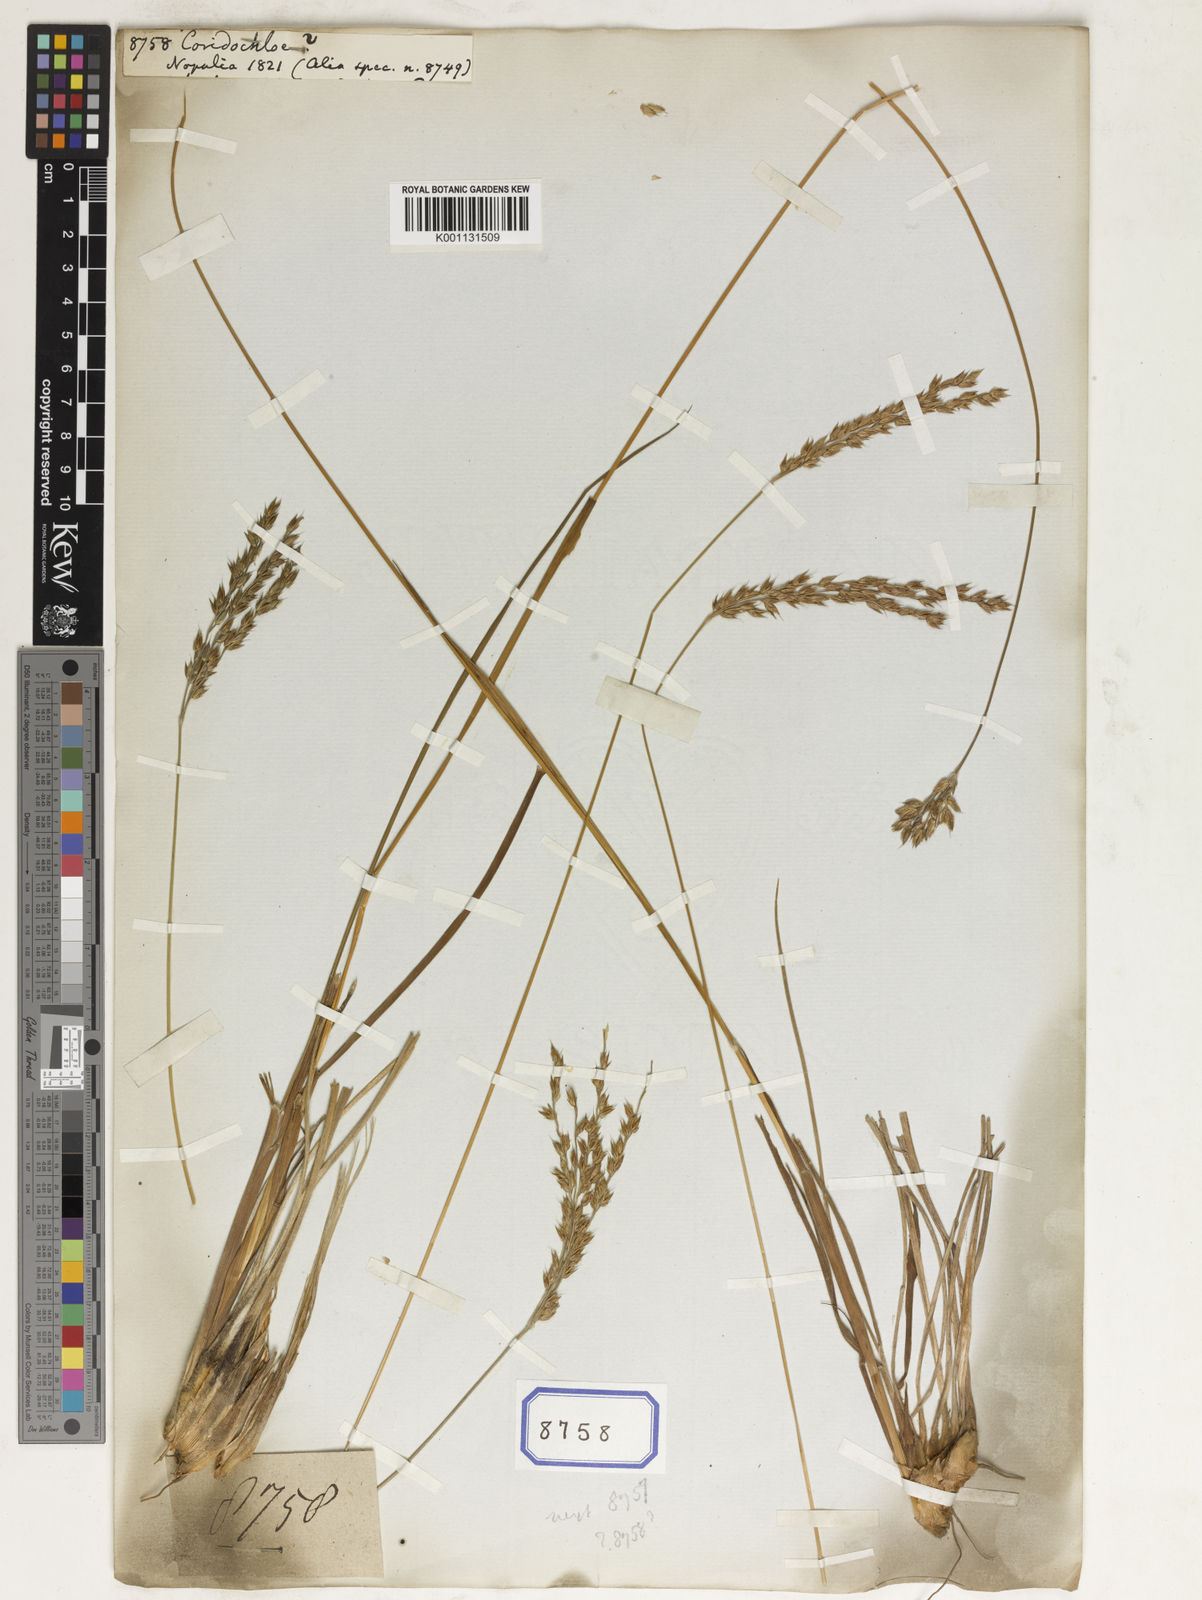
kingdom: Plantae
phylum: Tracheophyta
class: Liliopsida
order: Poales
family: Poaceae
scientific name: Poaceae
